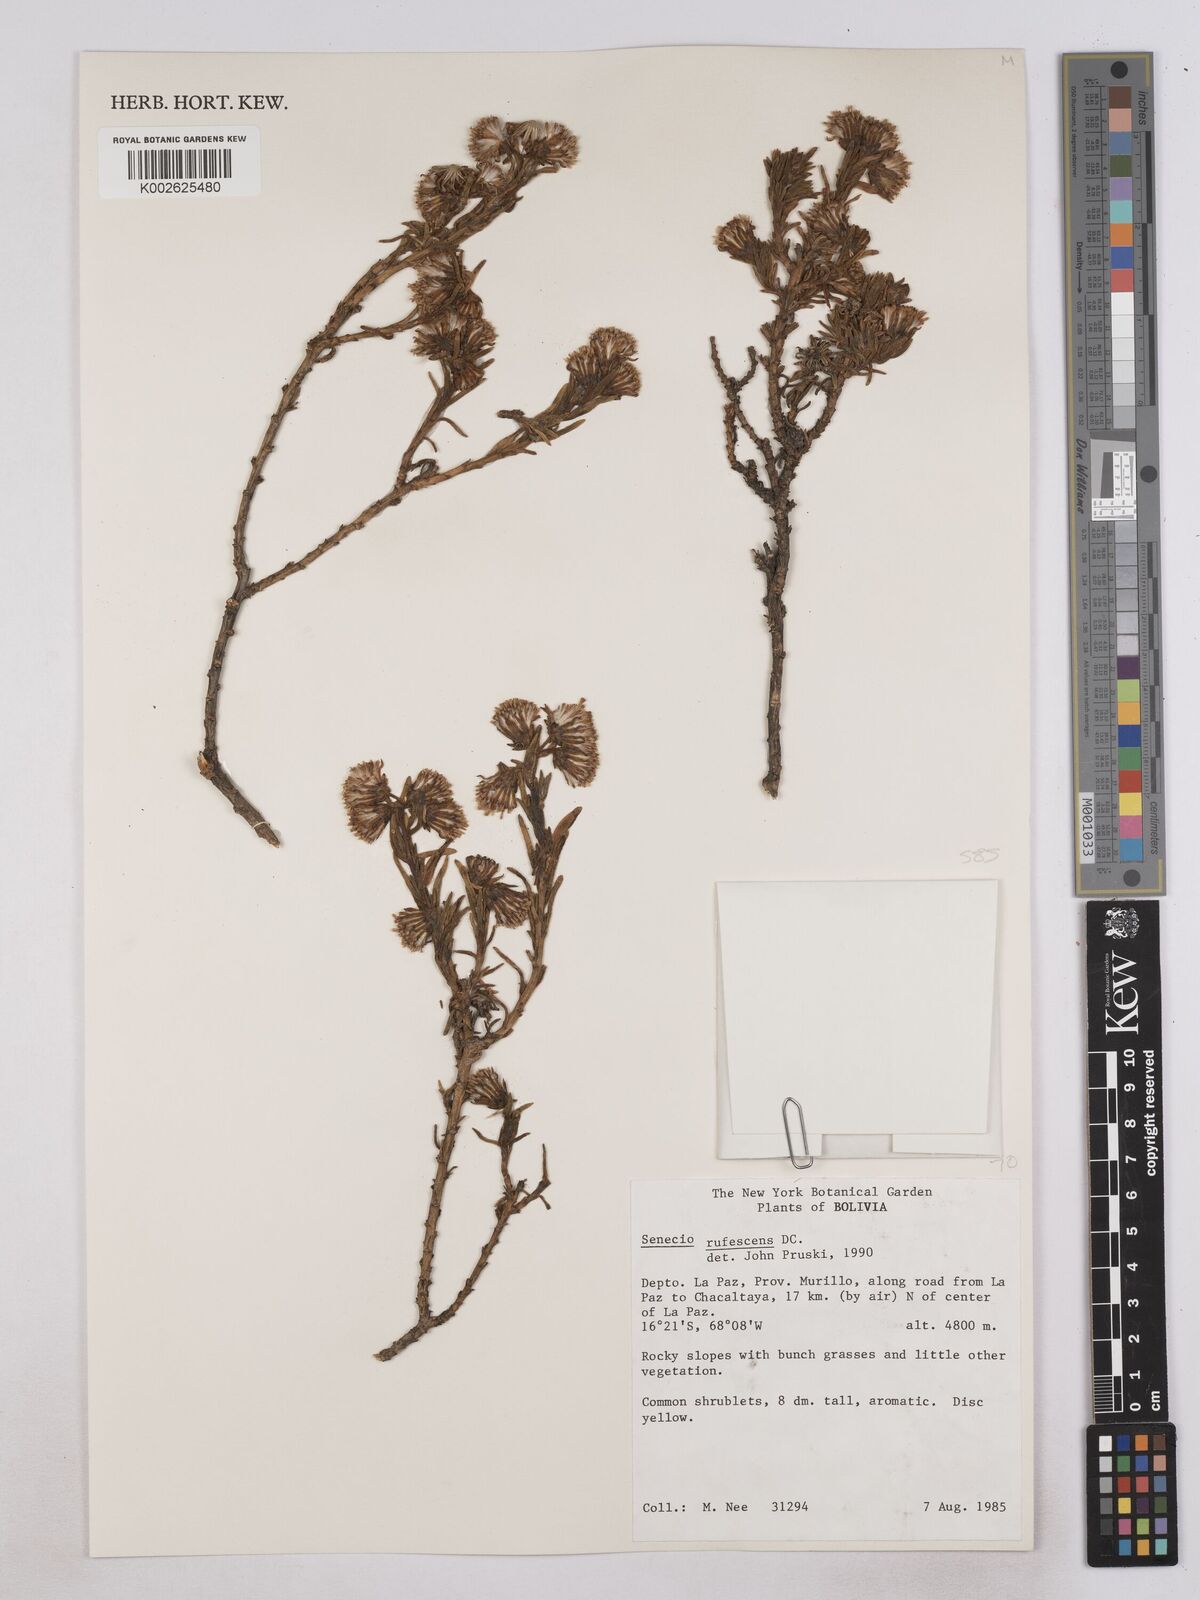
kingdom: Plantae
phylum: Tracheophyta
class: Magnoliopsida
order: Asterales
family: Asteraceae
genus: Senecio
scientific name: Senecio rufescens
